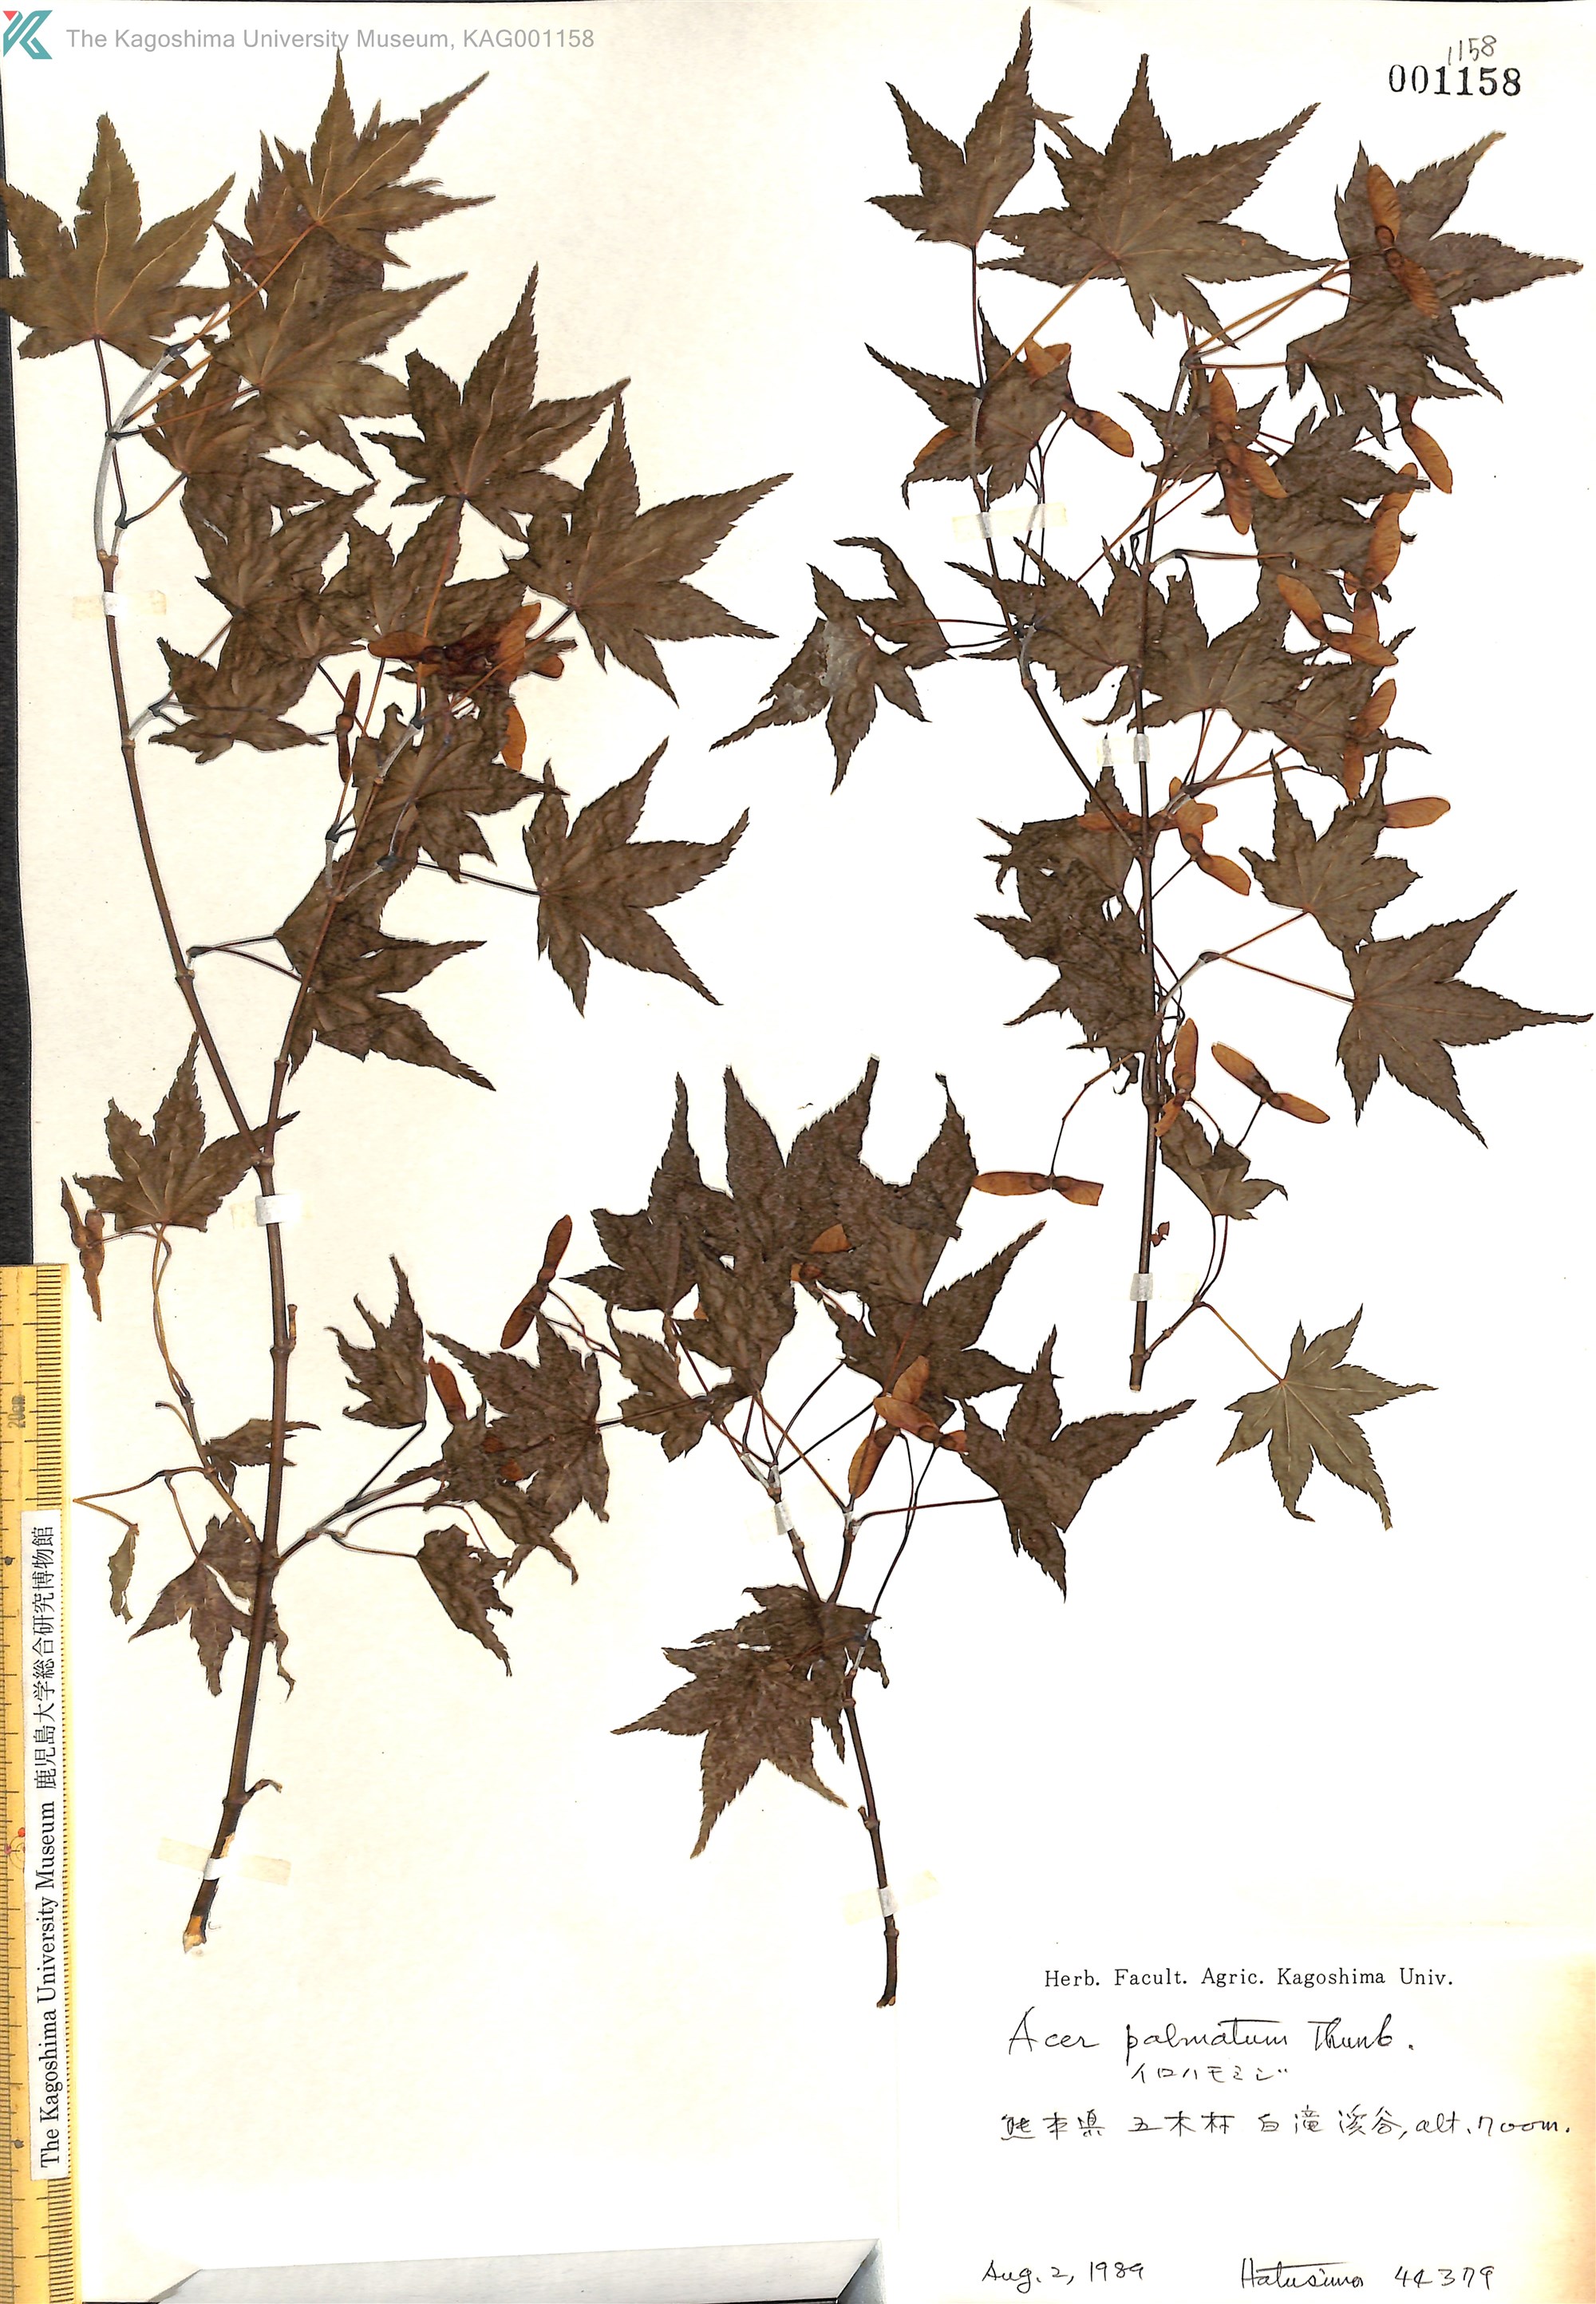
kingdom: Plantae
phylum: Tracheophyta
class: Magnoliopsida
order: Sapindales
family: Sapindaceae
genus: Acer
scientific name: Acer palmatum
